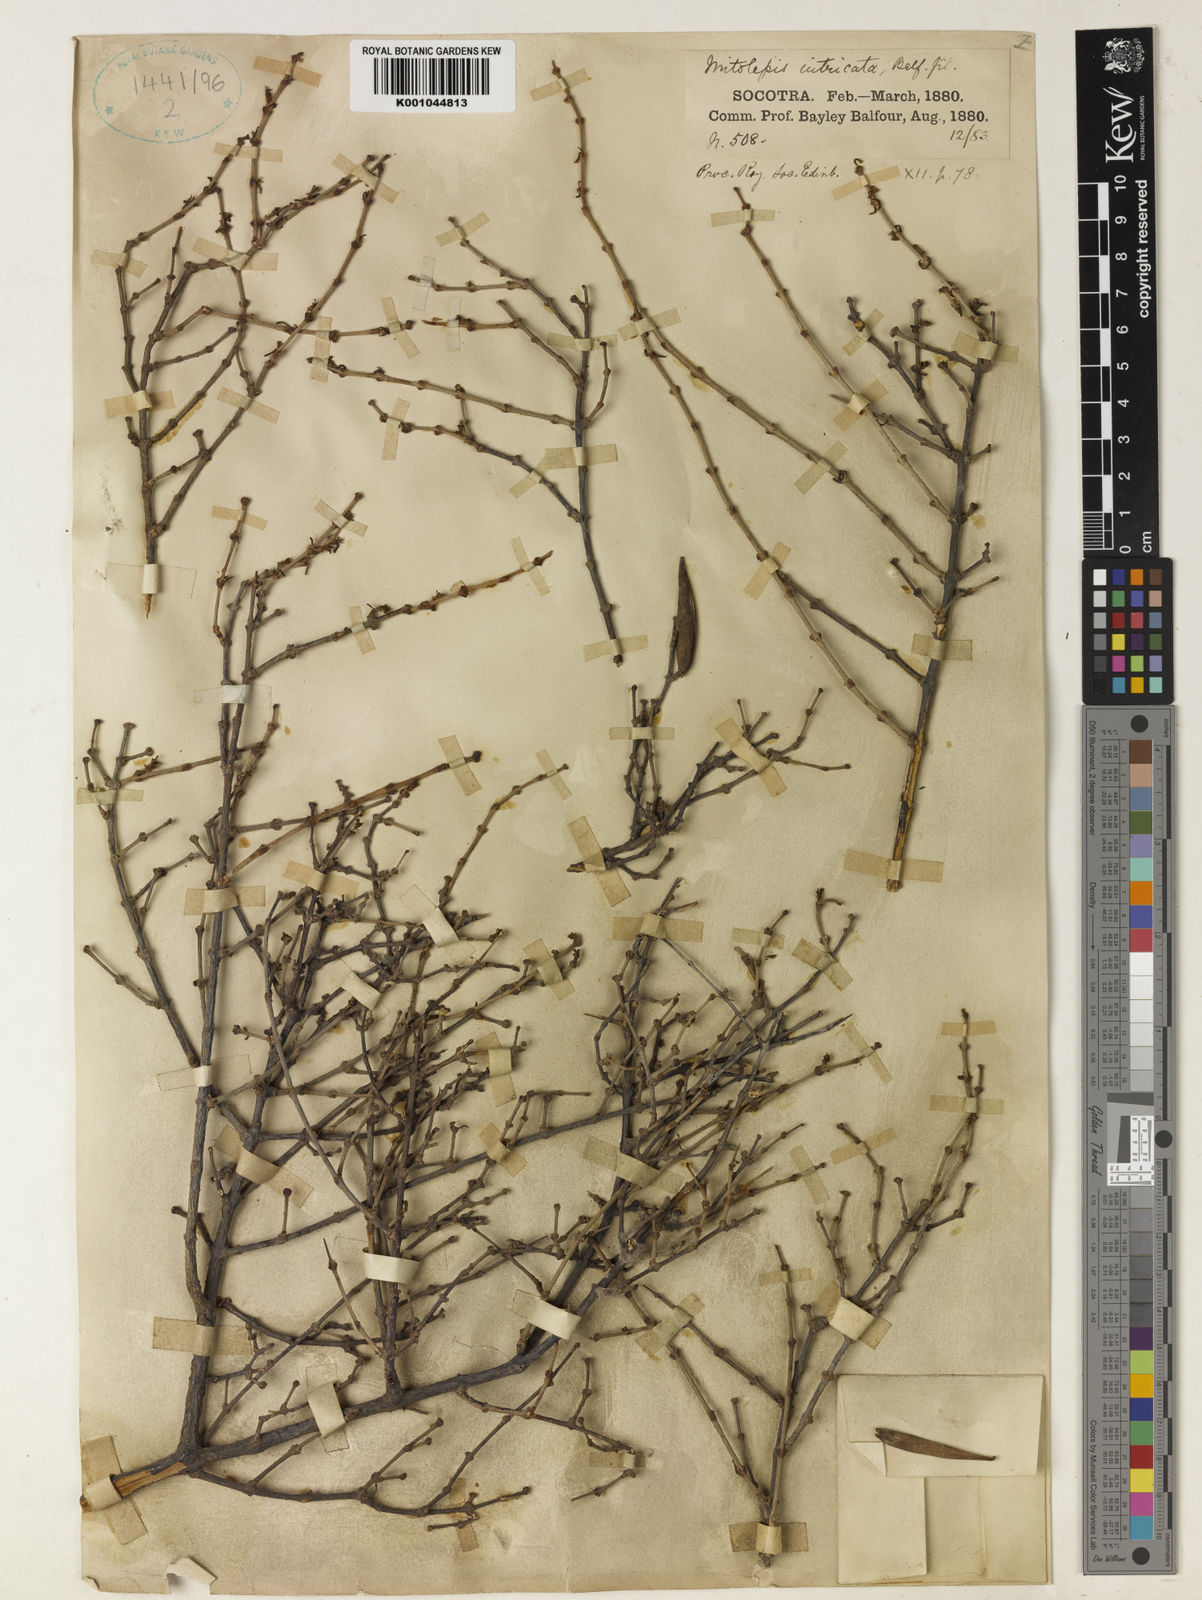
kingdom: Plantae
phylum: Tracheophyta
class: Magnoliopsida
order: Gentianales
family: Apocynaceae
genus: Cryptolepis
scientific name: Cryptolepis intricata
